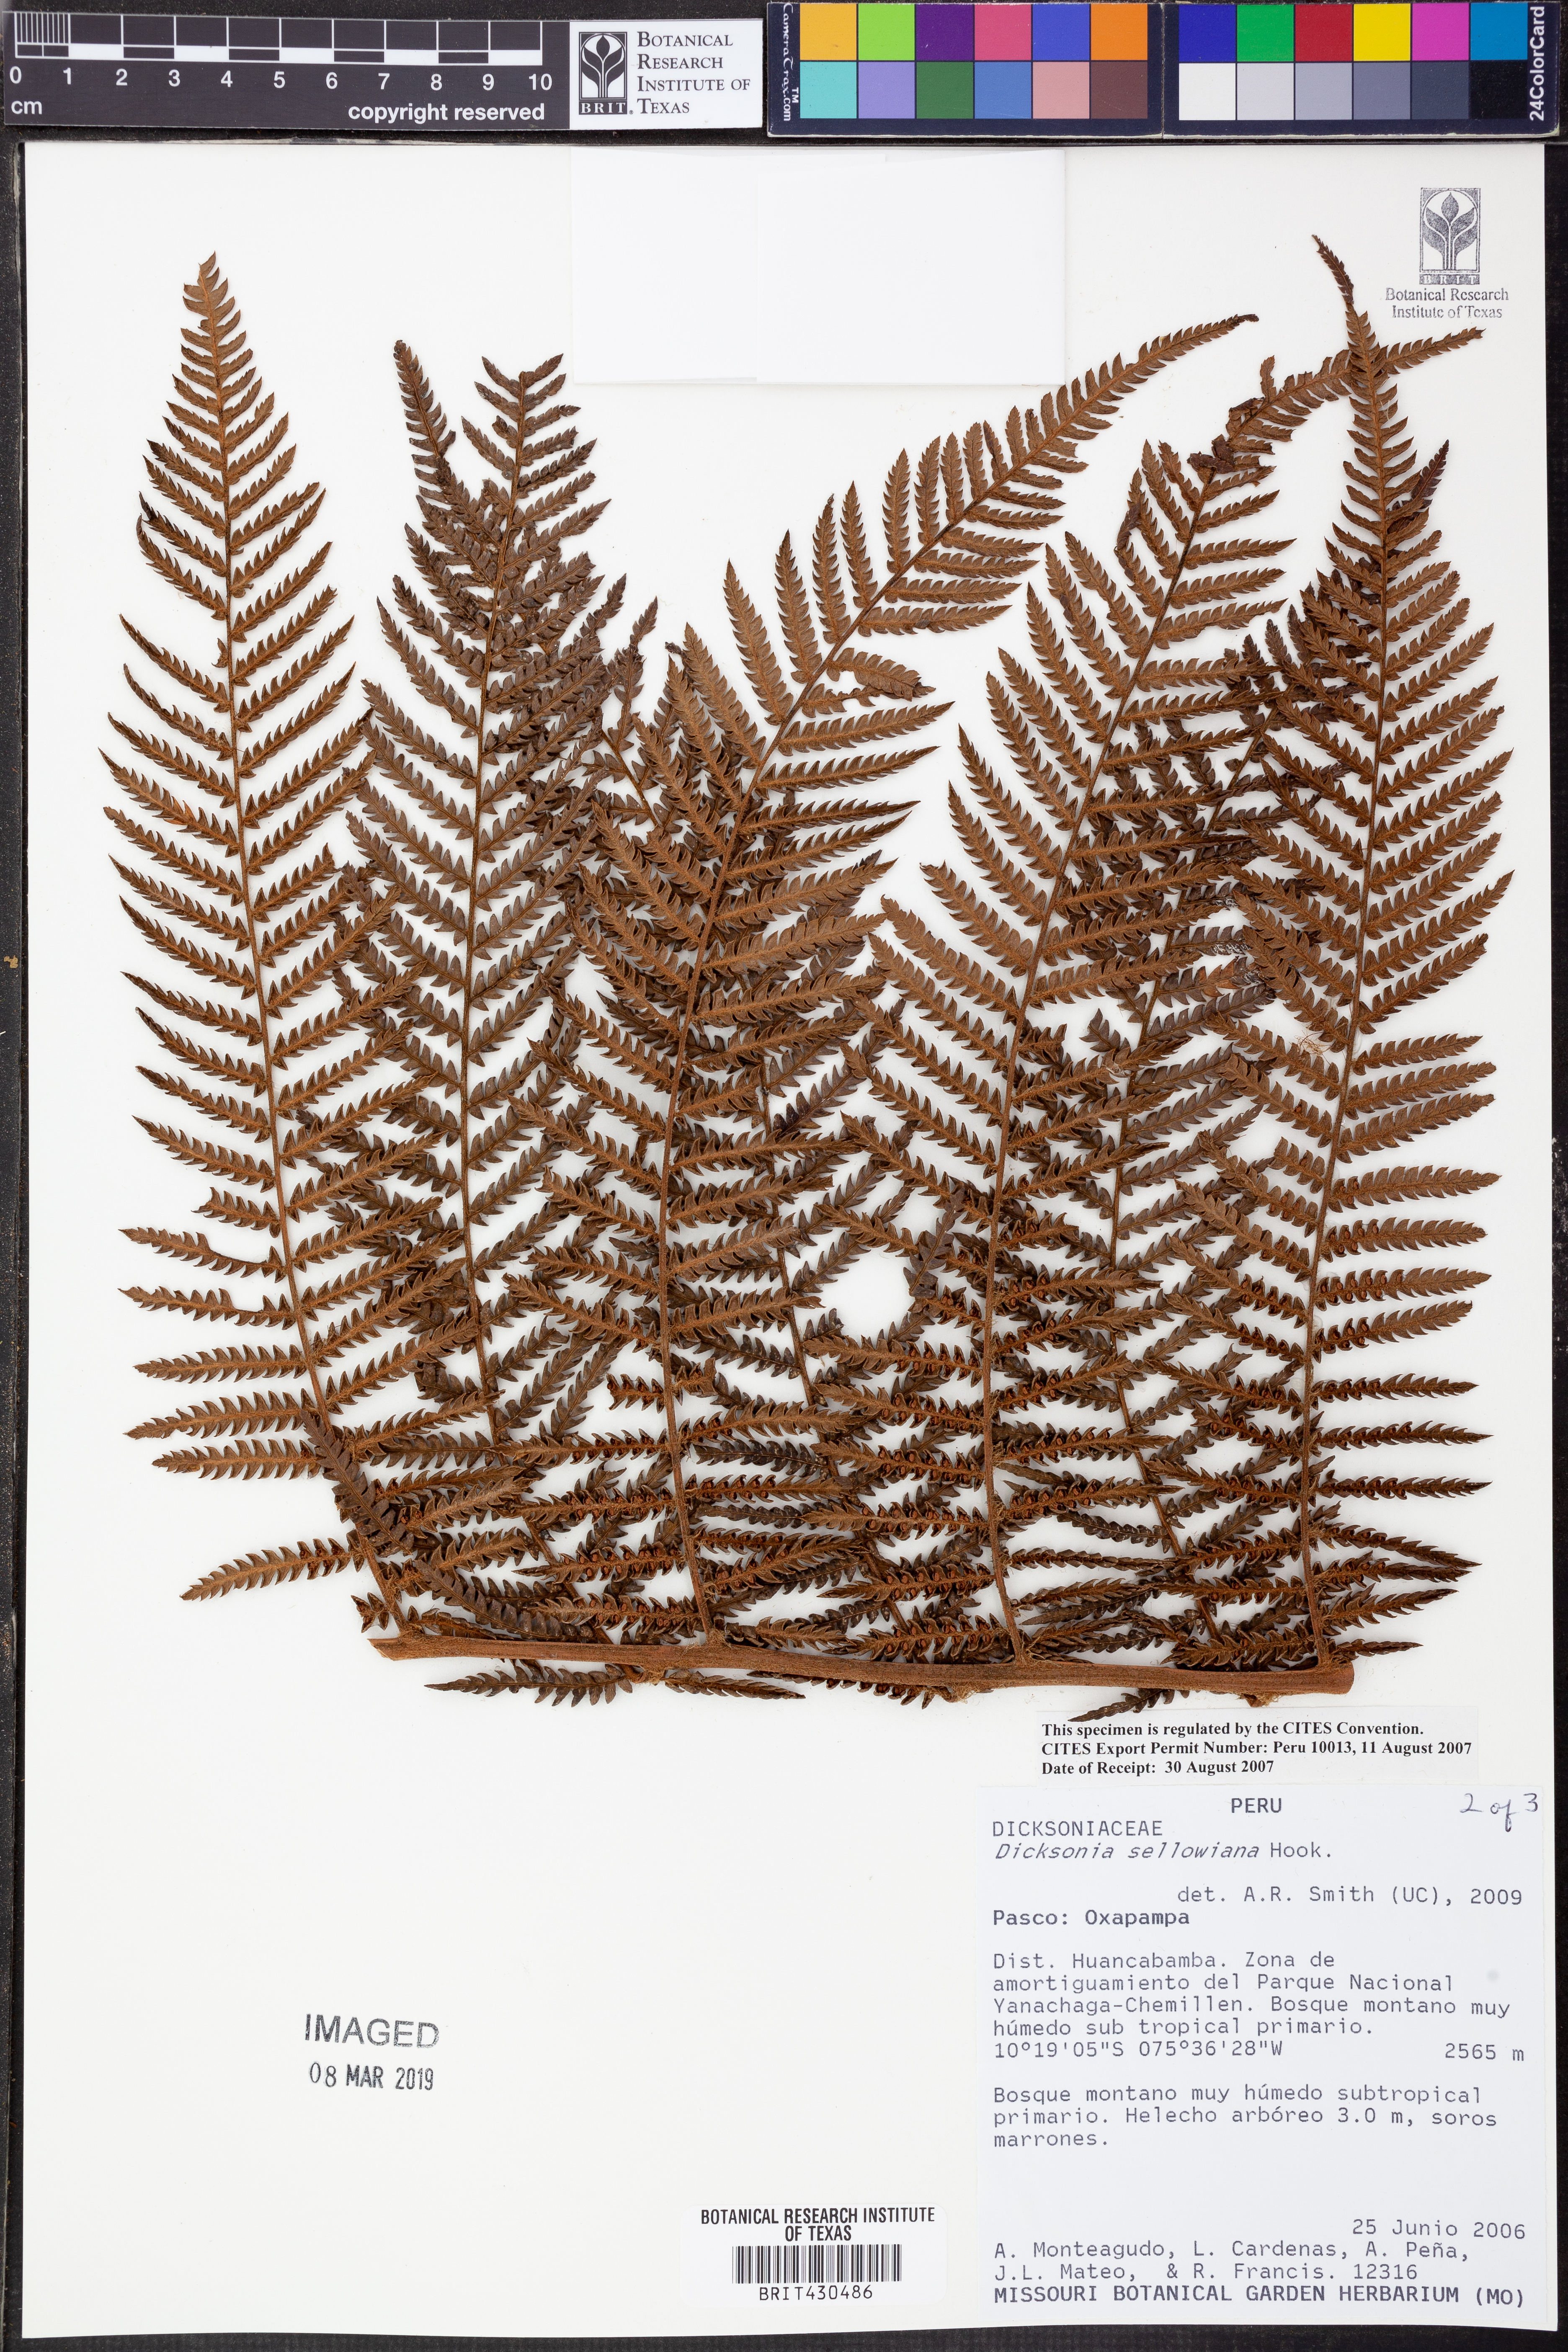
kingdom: Plantae
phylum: Tracheophyta
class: Polypodiopsida
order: Cyatheales
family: Dicksoniaceae
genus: Dicksonia
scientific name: Dicksonia sellowiana
